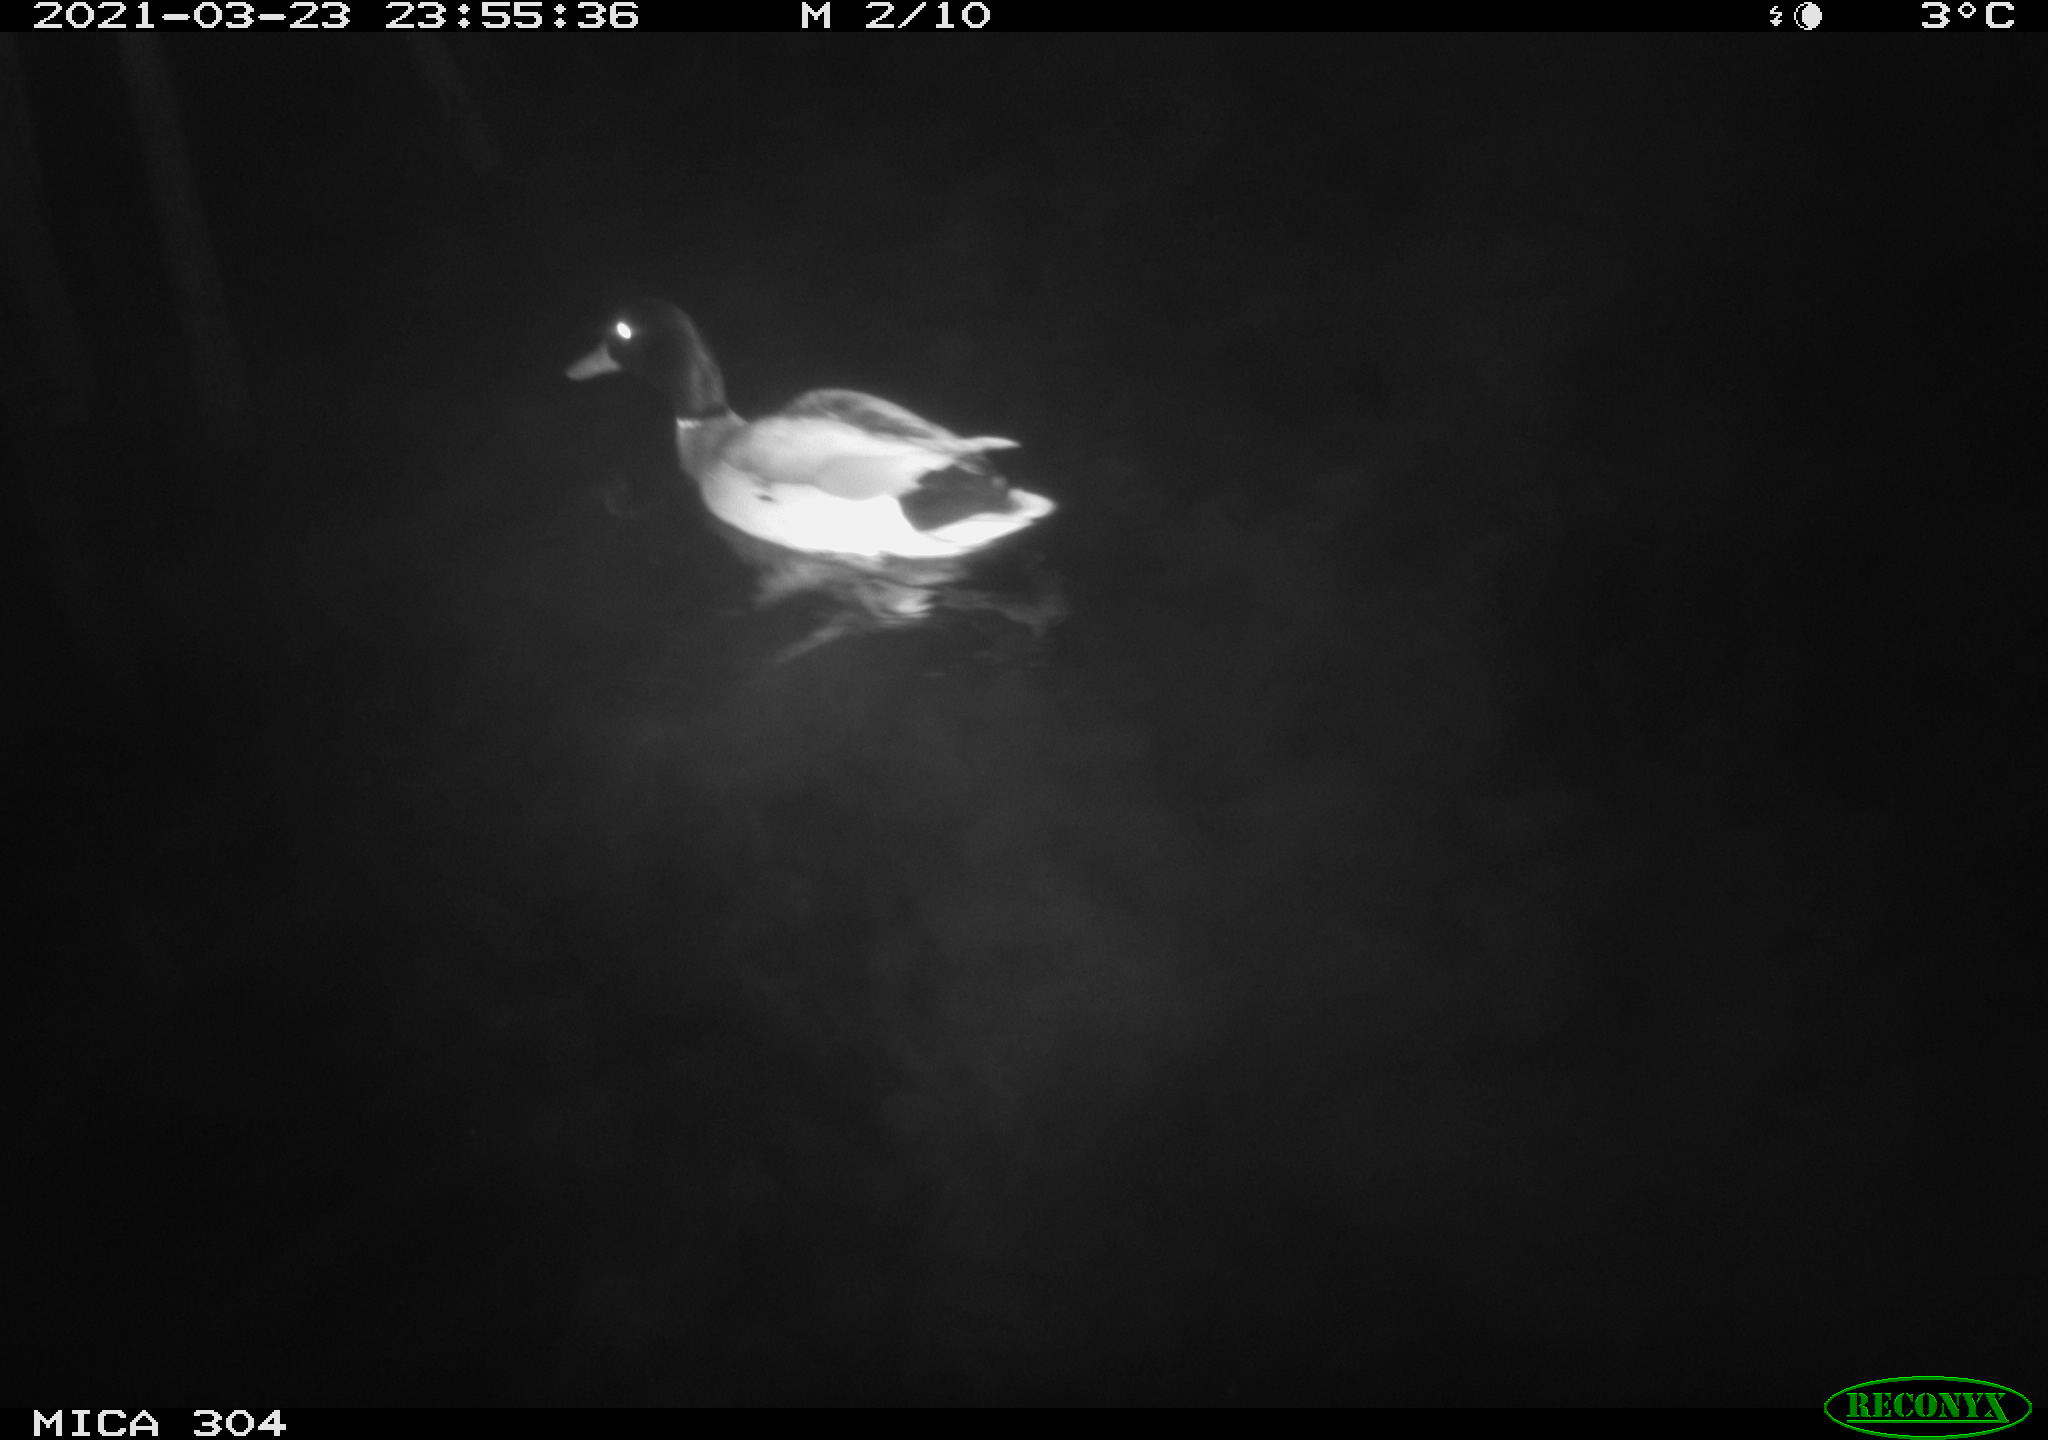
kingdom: Animalia
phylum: Chordata
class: Aves
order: Anseriformes
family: Anatidae
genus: Anas
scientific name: Anas platyrhynchos
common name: Mallard
